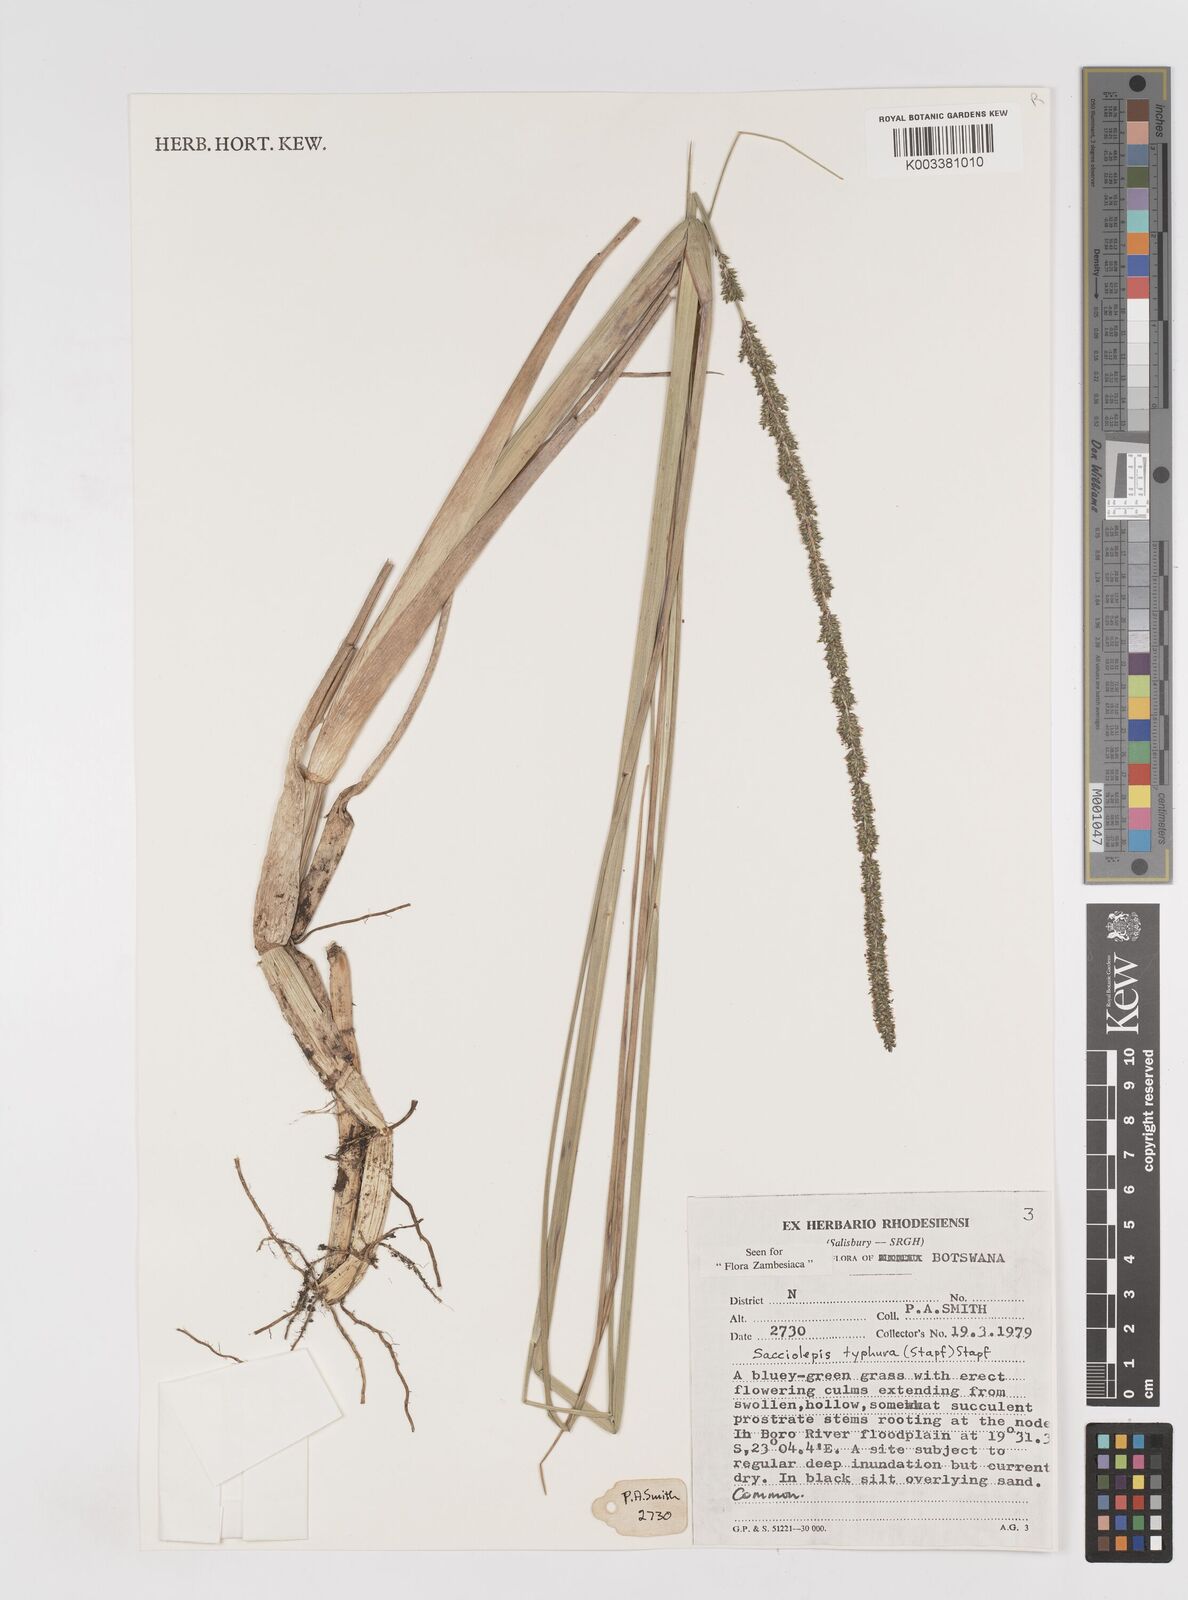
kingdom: Plantae
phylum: Tracheophyta
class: Liliopsida
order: Poales
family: Poaceae
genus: Sacciolepis
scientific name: Sacciolepis typhura
